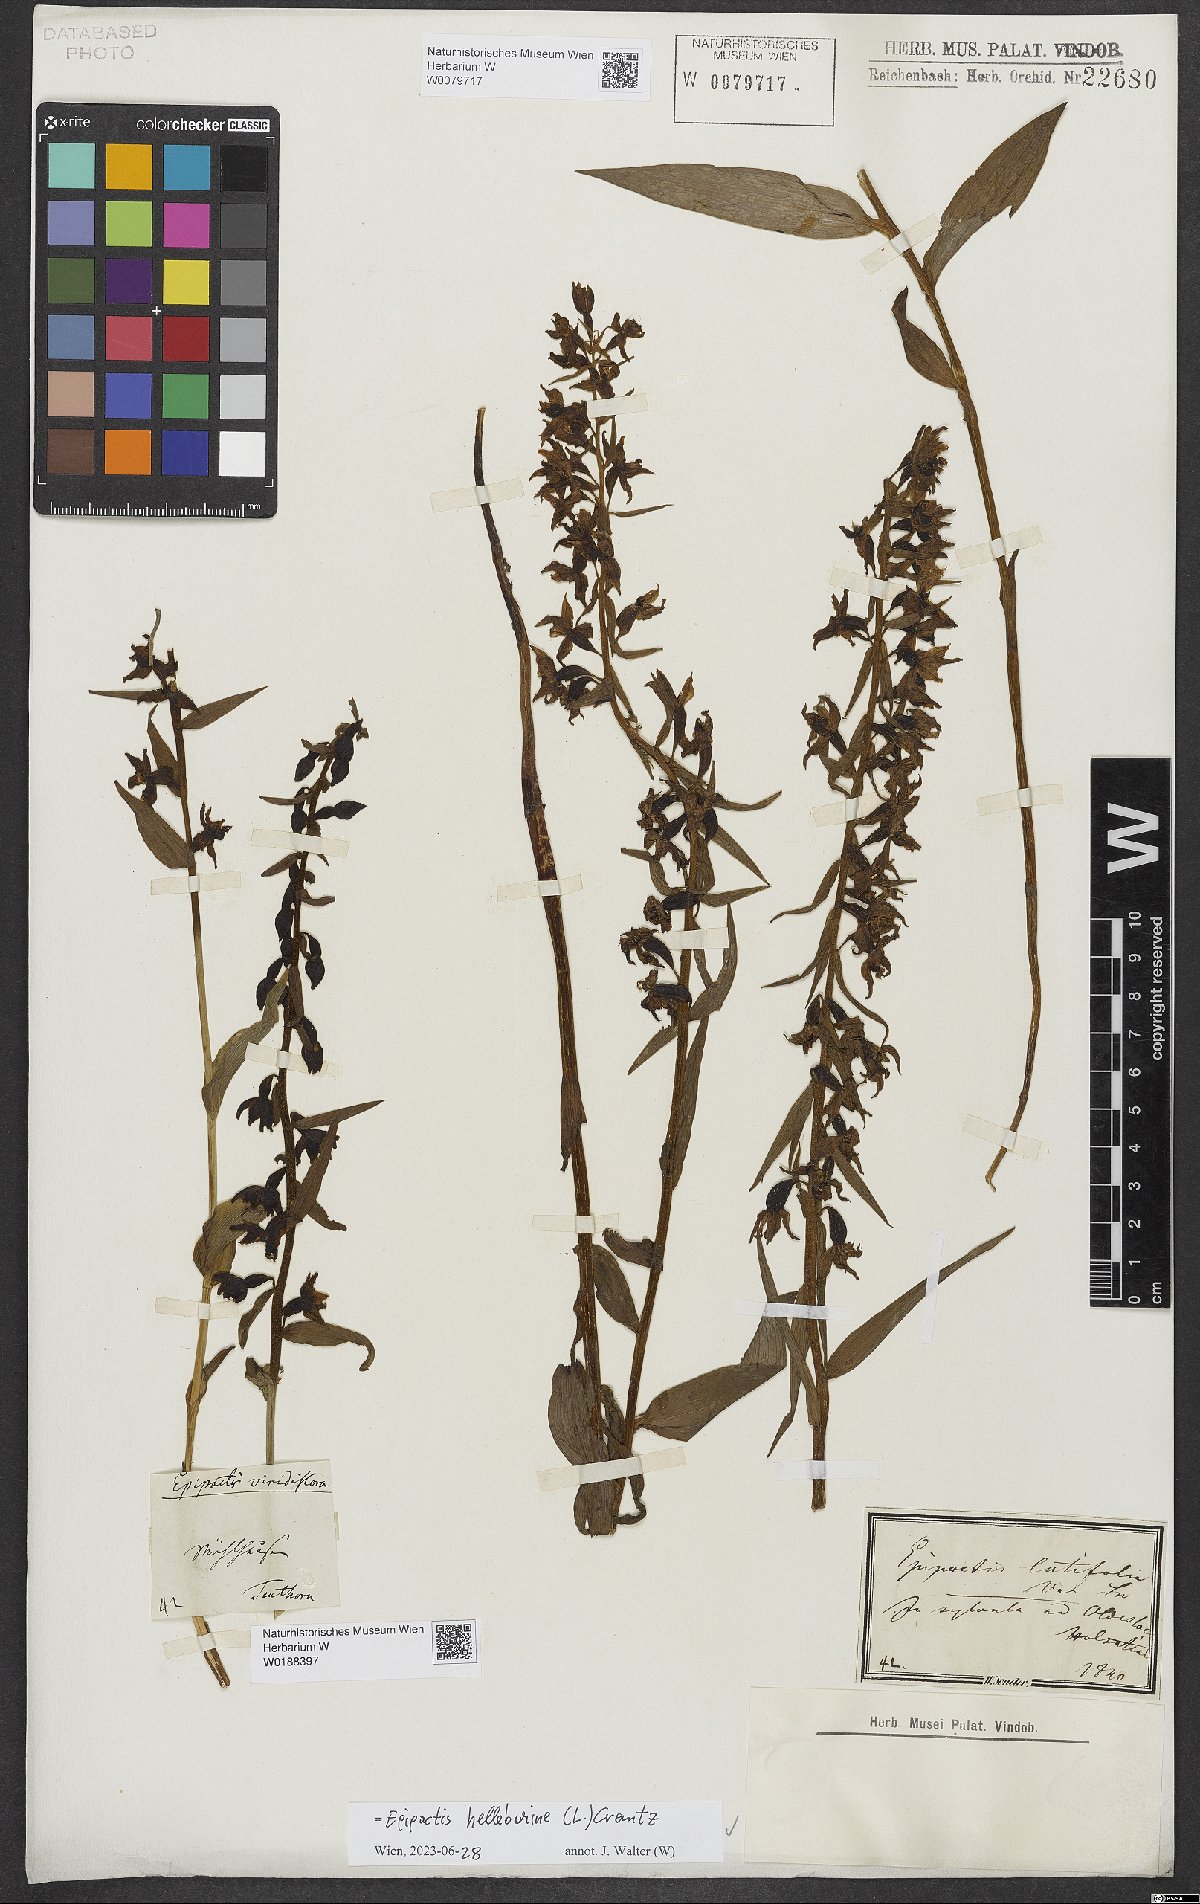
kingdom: Plantae
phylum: Tracheophyta
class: Liliopsida
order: Asparagales
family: Orchidaceae
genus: Epipactis
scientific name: Epipactis helleborine
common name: Broad-leaved helleborine
